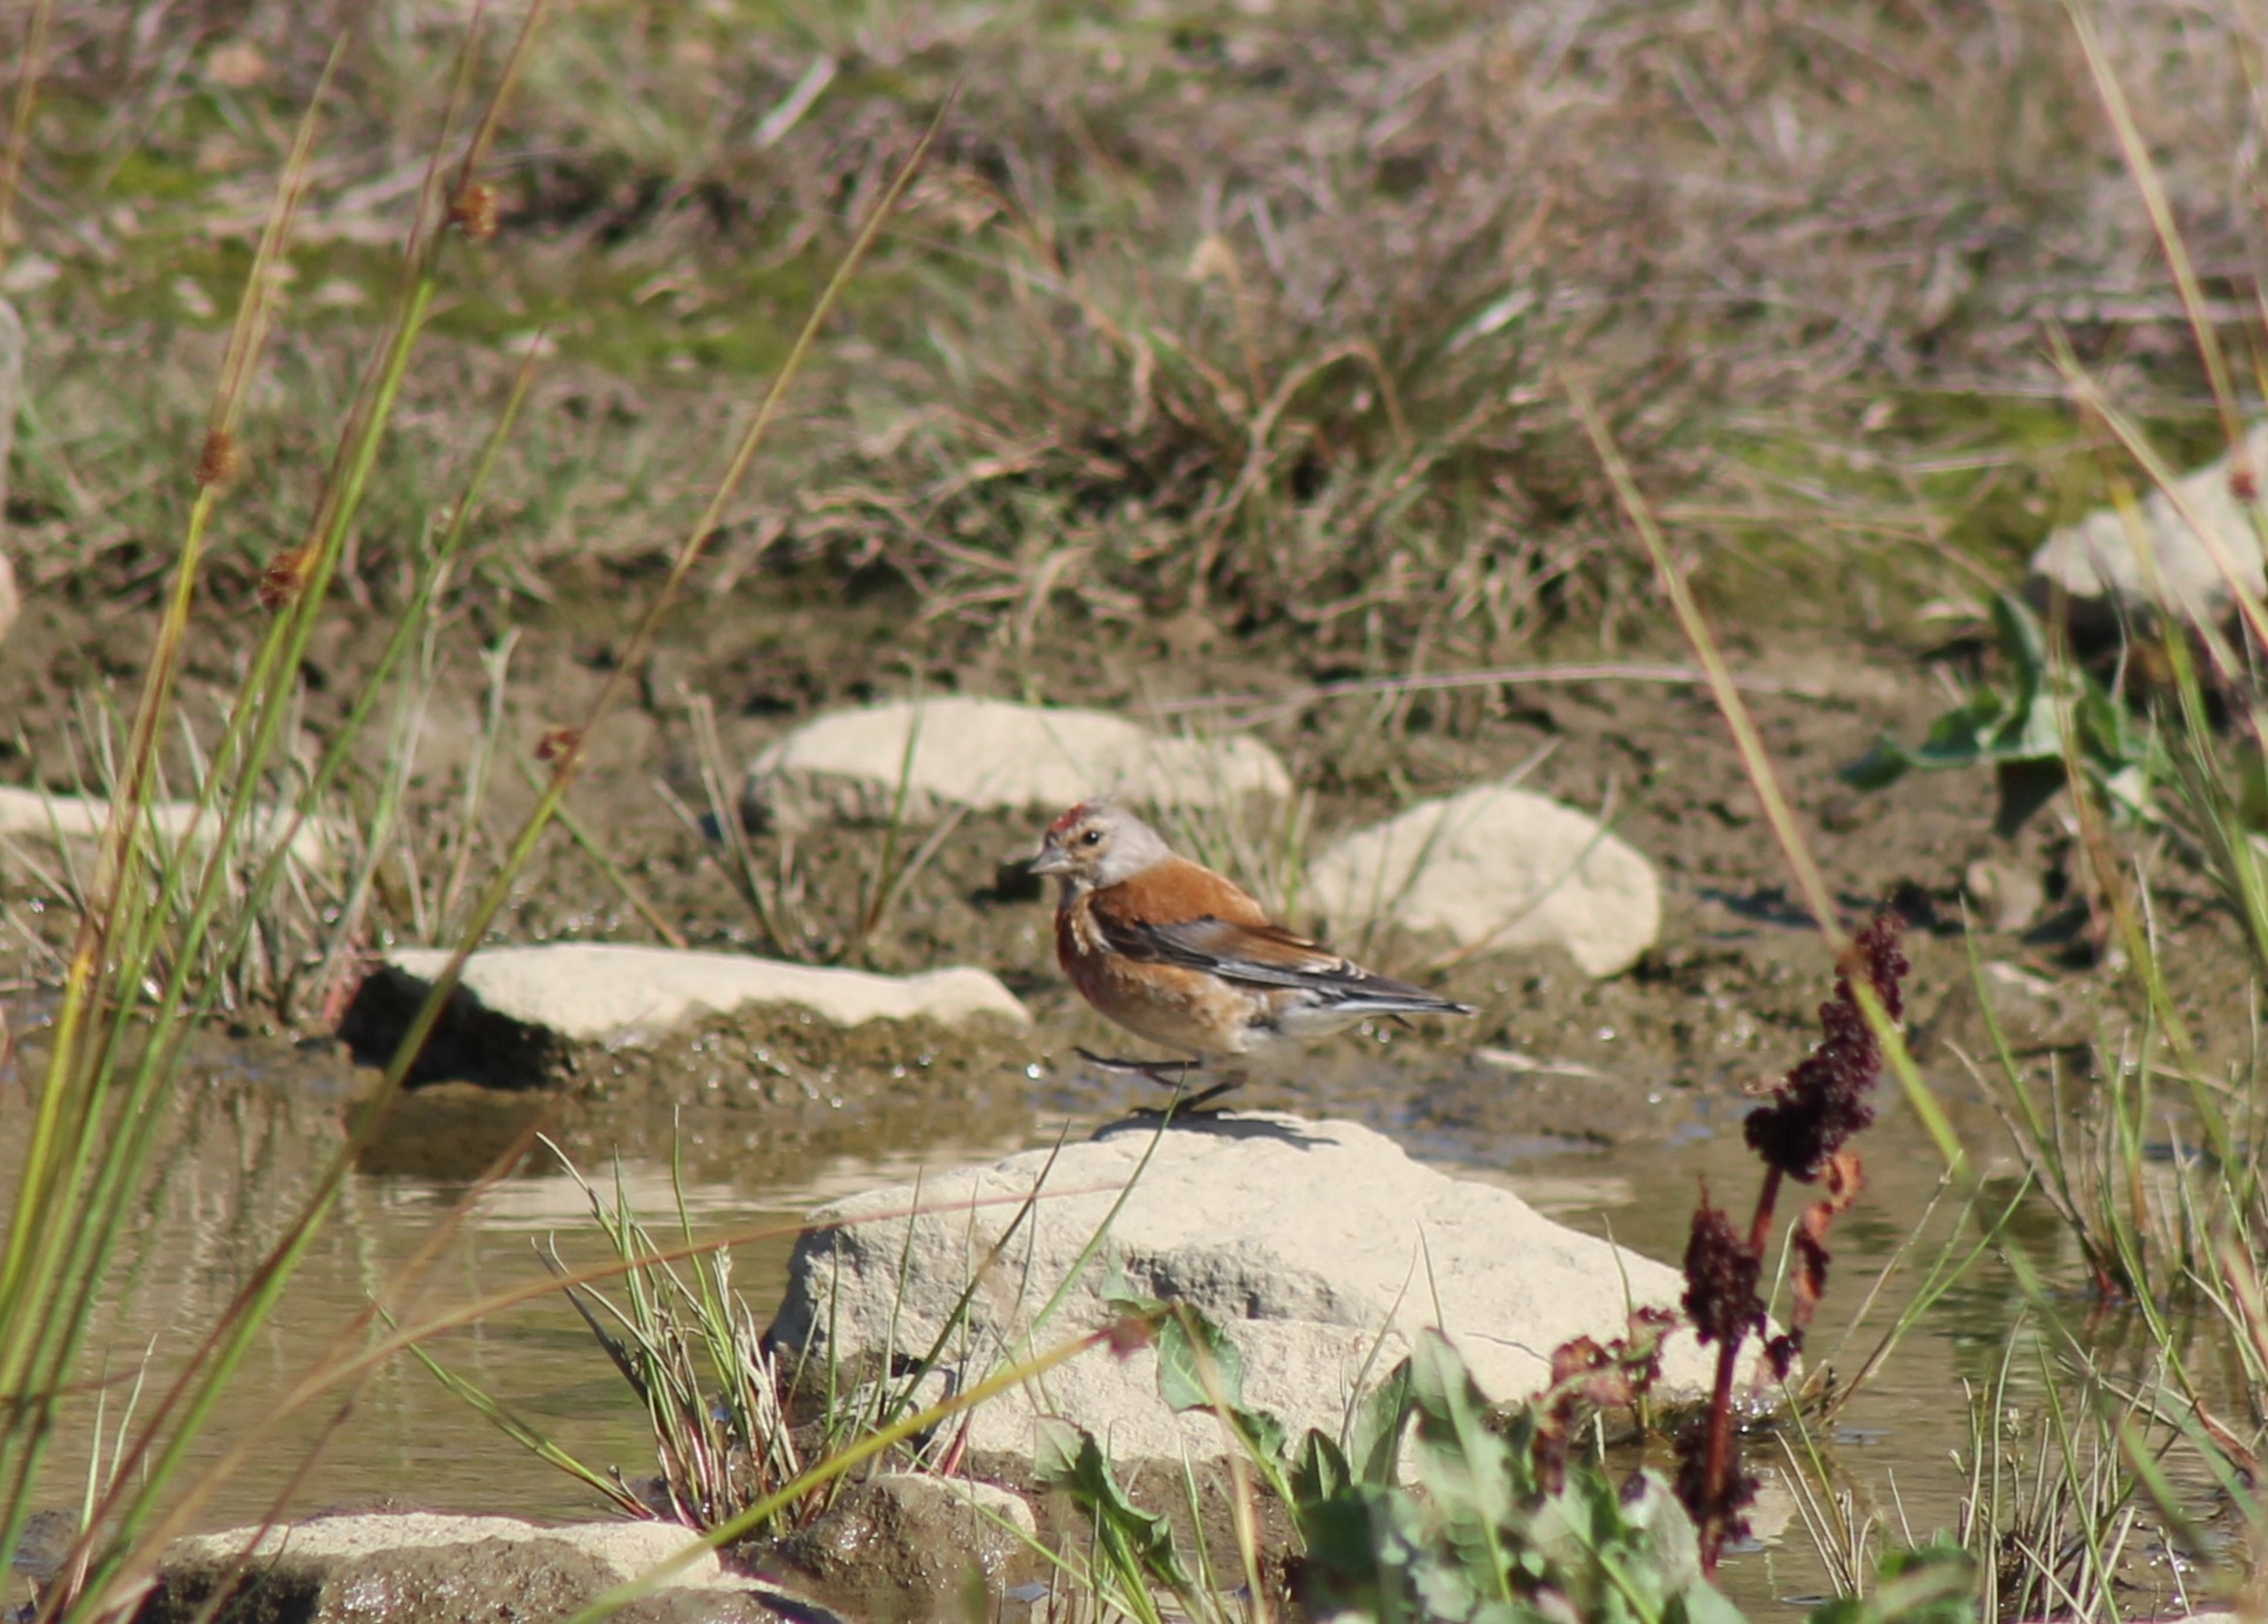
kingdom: Animalia
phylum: Chordata
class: Aves
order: Passeriformes
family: Fringillidae
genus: Linaria
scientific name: Linaria cannabina
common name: Tornirisk
